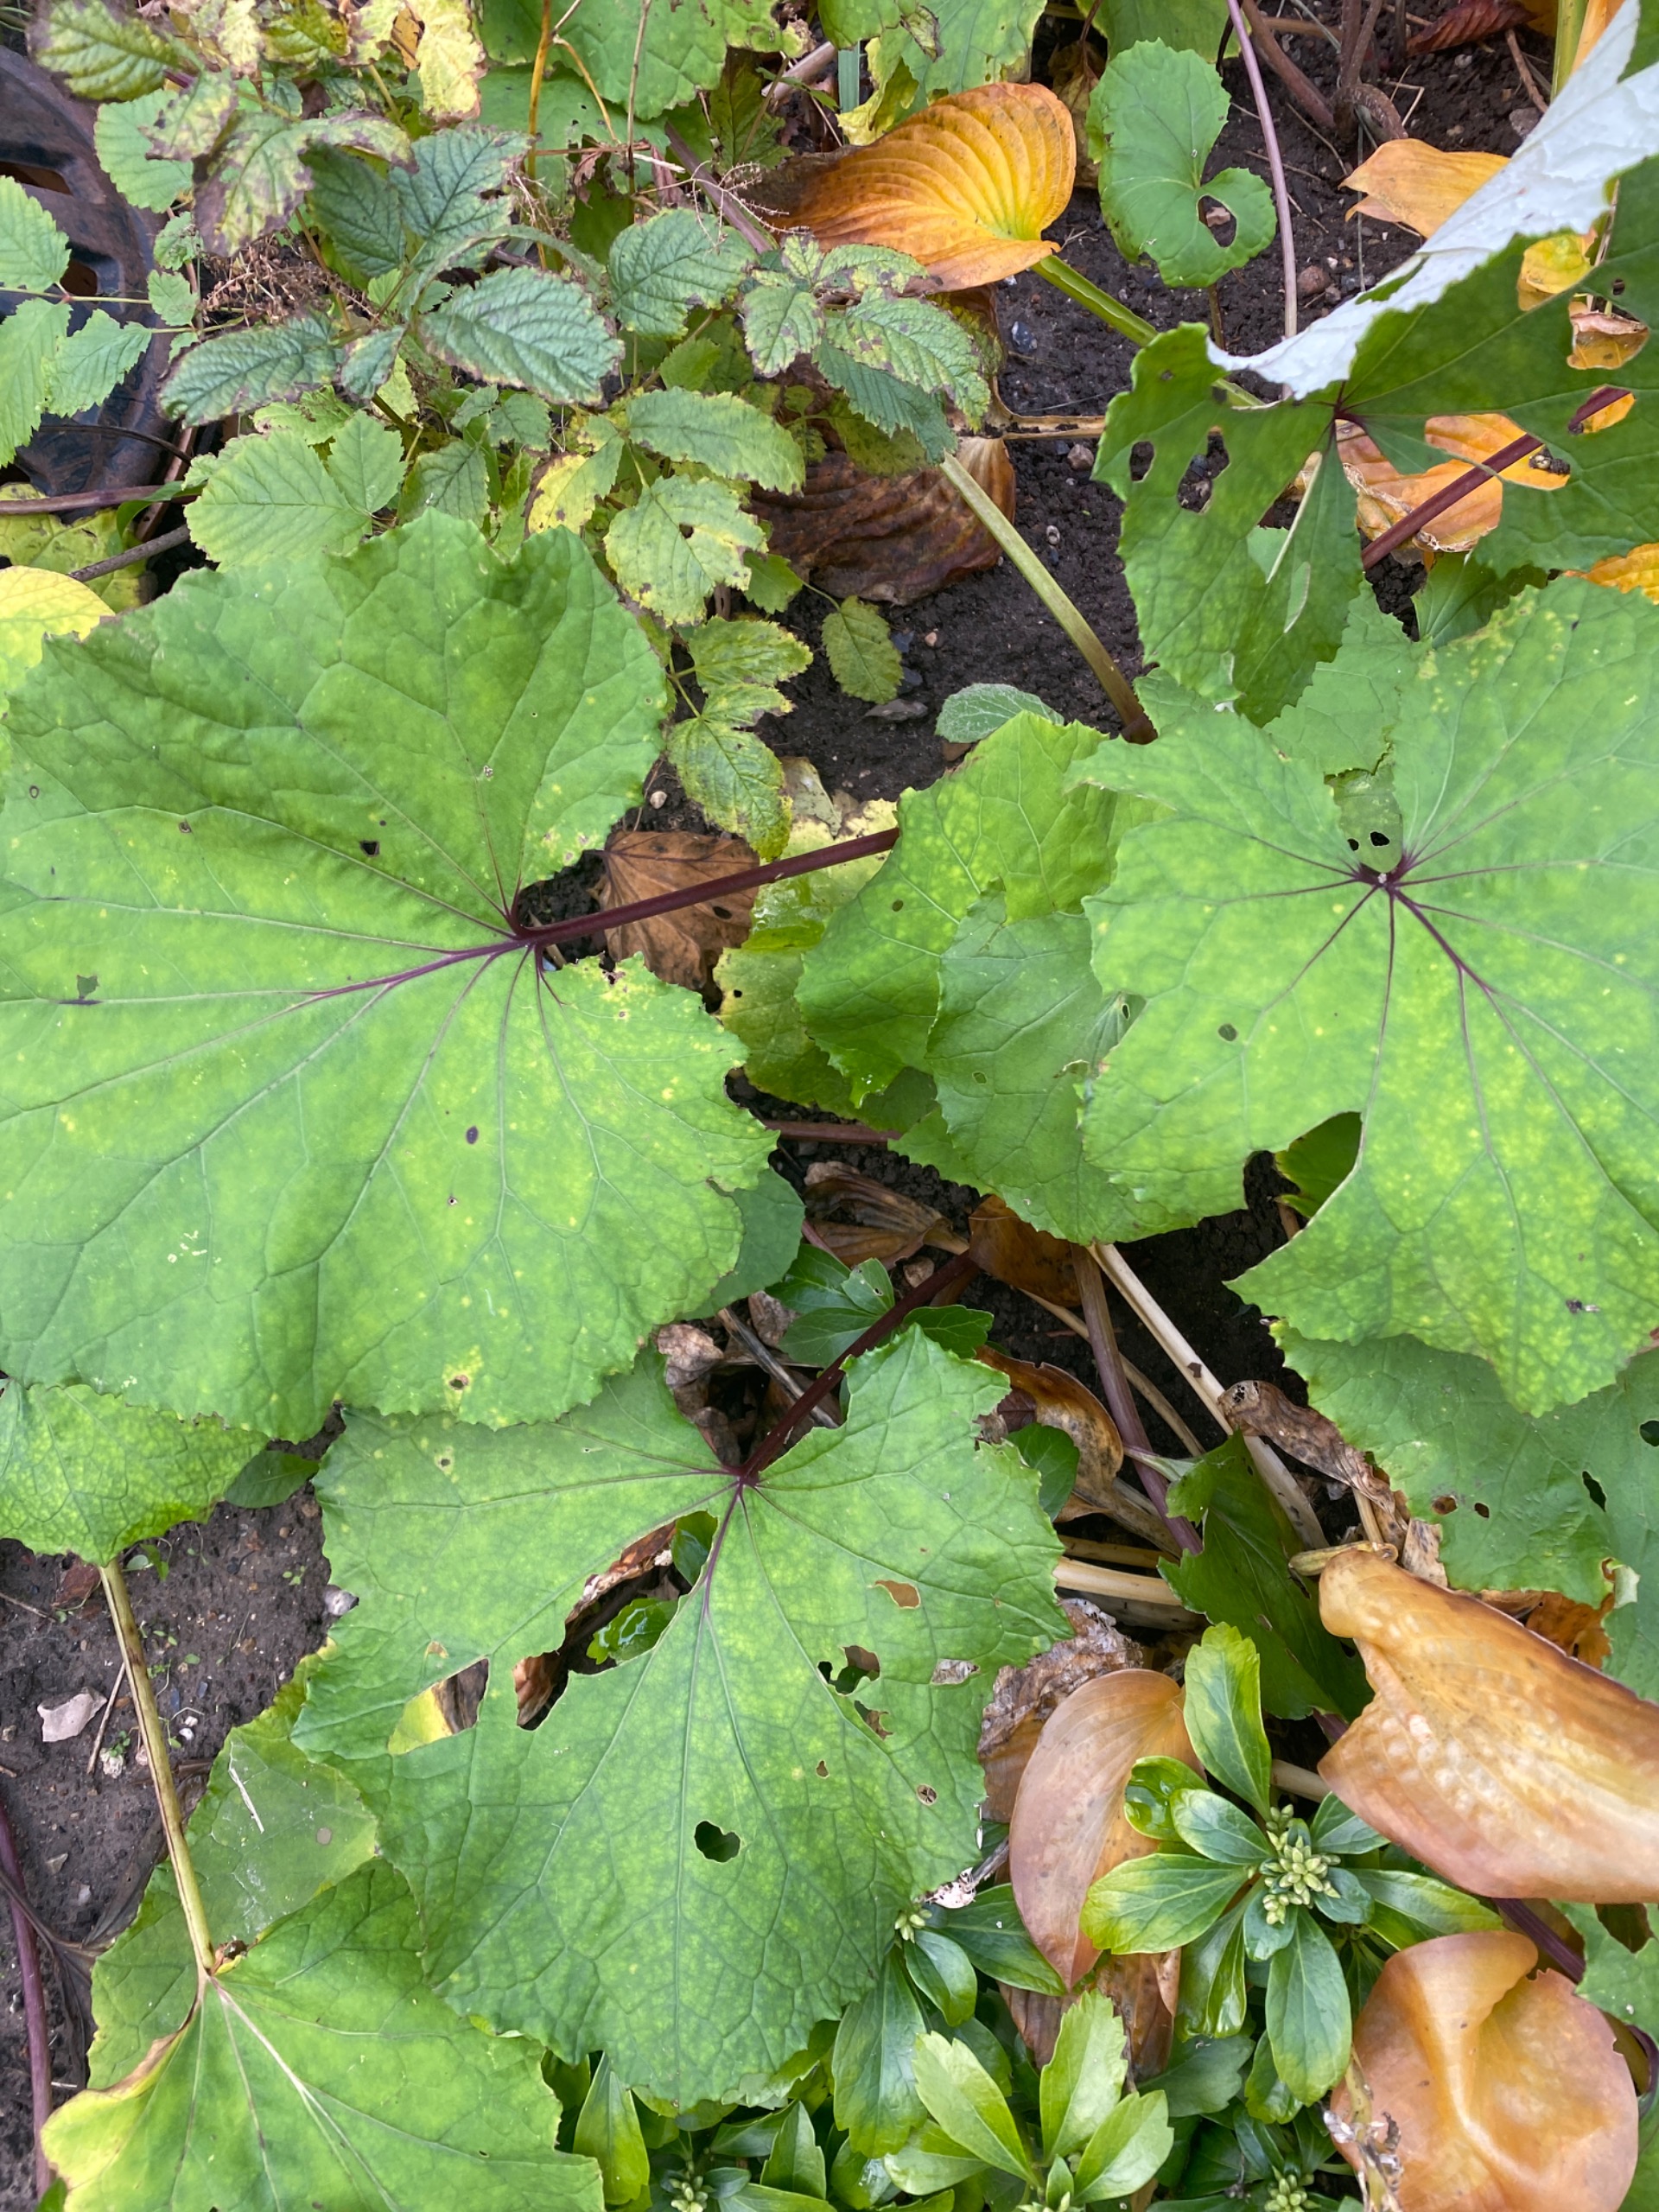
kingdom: Plantae
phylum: Tracheophyta
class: Magnoliopsida
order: Asterales
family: Asteraceae
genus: Tussilago
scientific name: Tussilago farfara
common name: Følfod
